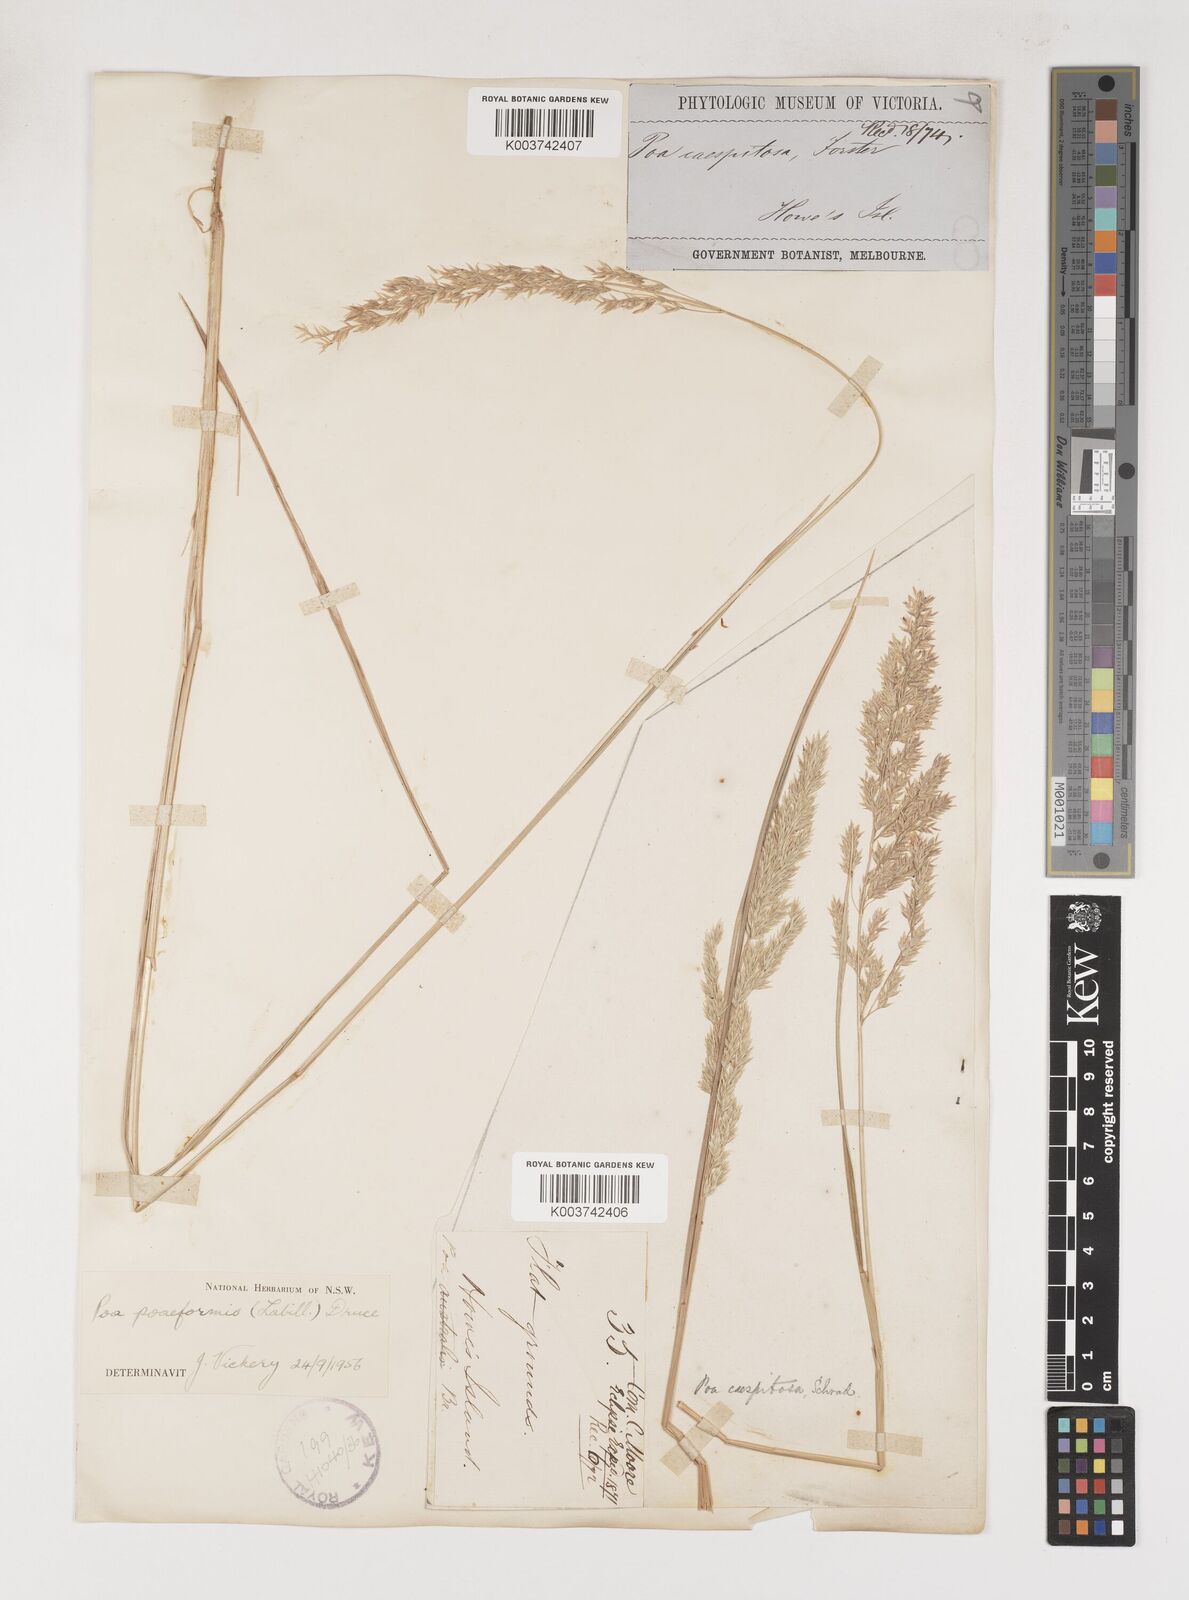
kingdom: Plantae
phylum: Tracheophyta
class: Liliopsida
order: Poales
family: Poaceae
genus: Poa
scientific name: Poa poiformis
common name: Tussock poa
